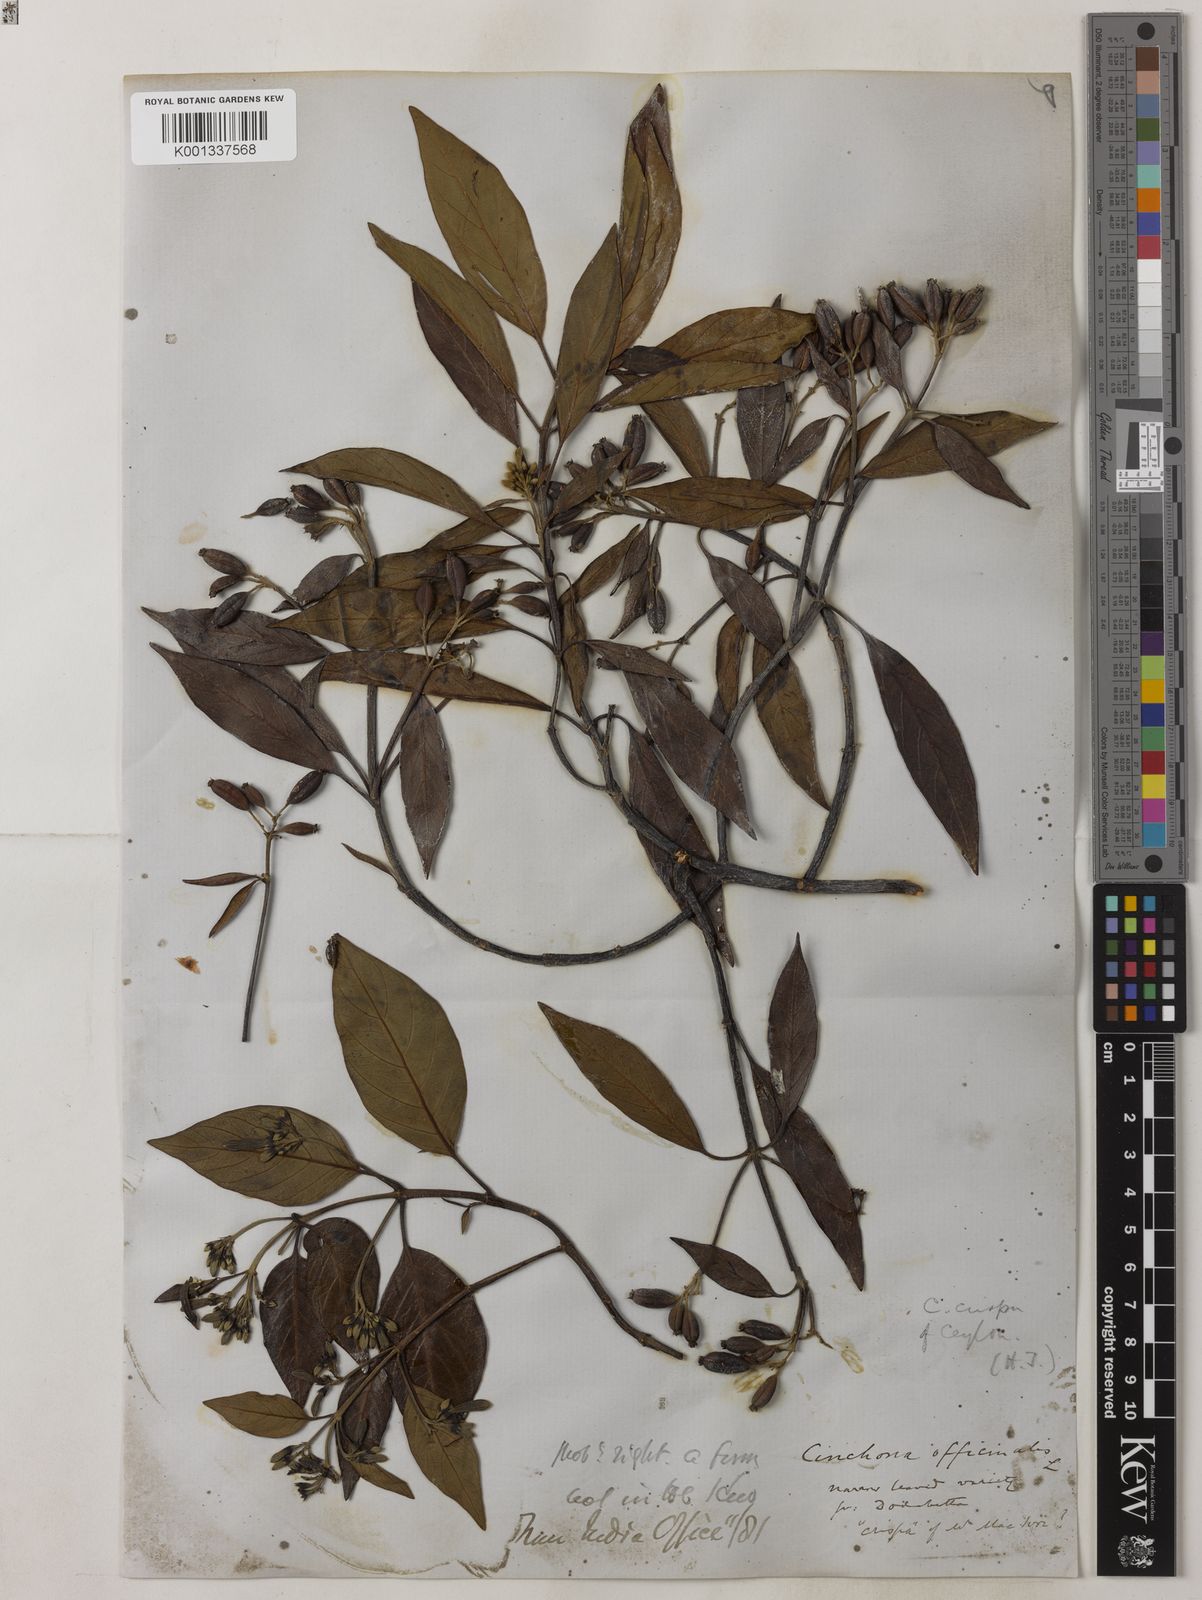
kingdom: Plantae
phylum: Tracheophyta
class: Magnoliopsida
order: Gentianales
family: Rubiaceae
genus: Cinchona
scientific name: Cinchona officinalis
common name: Lojabark
